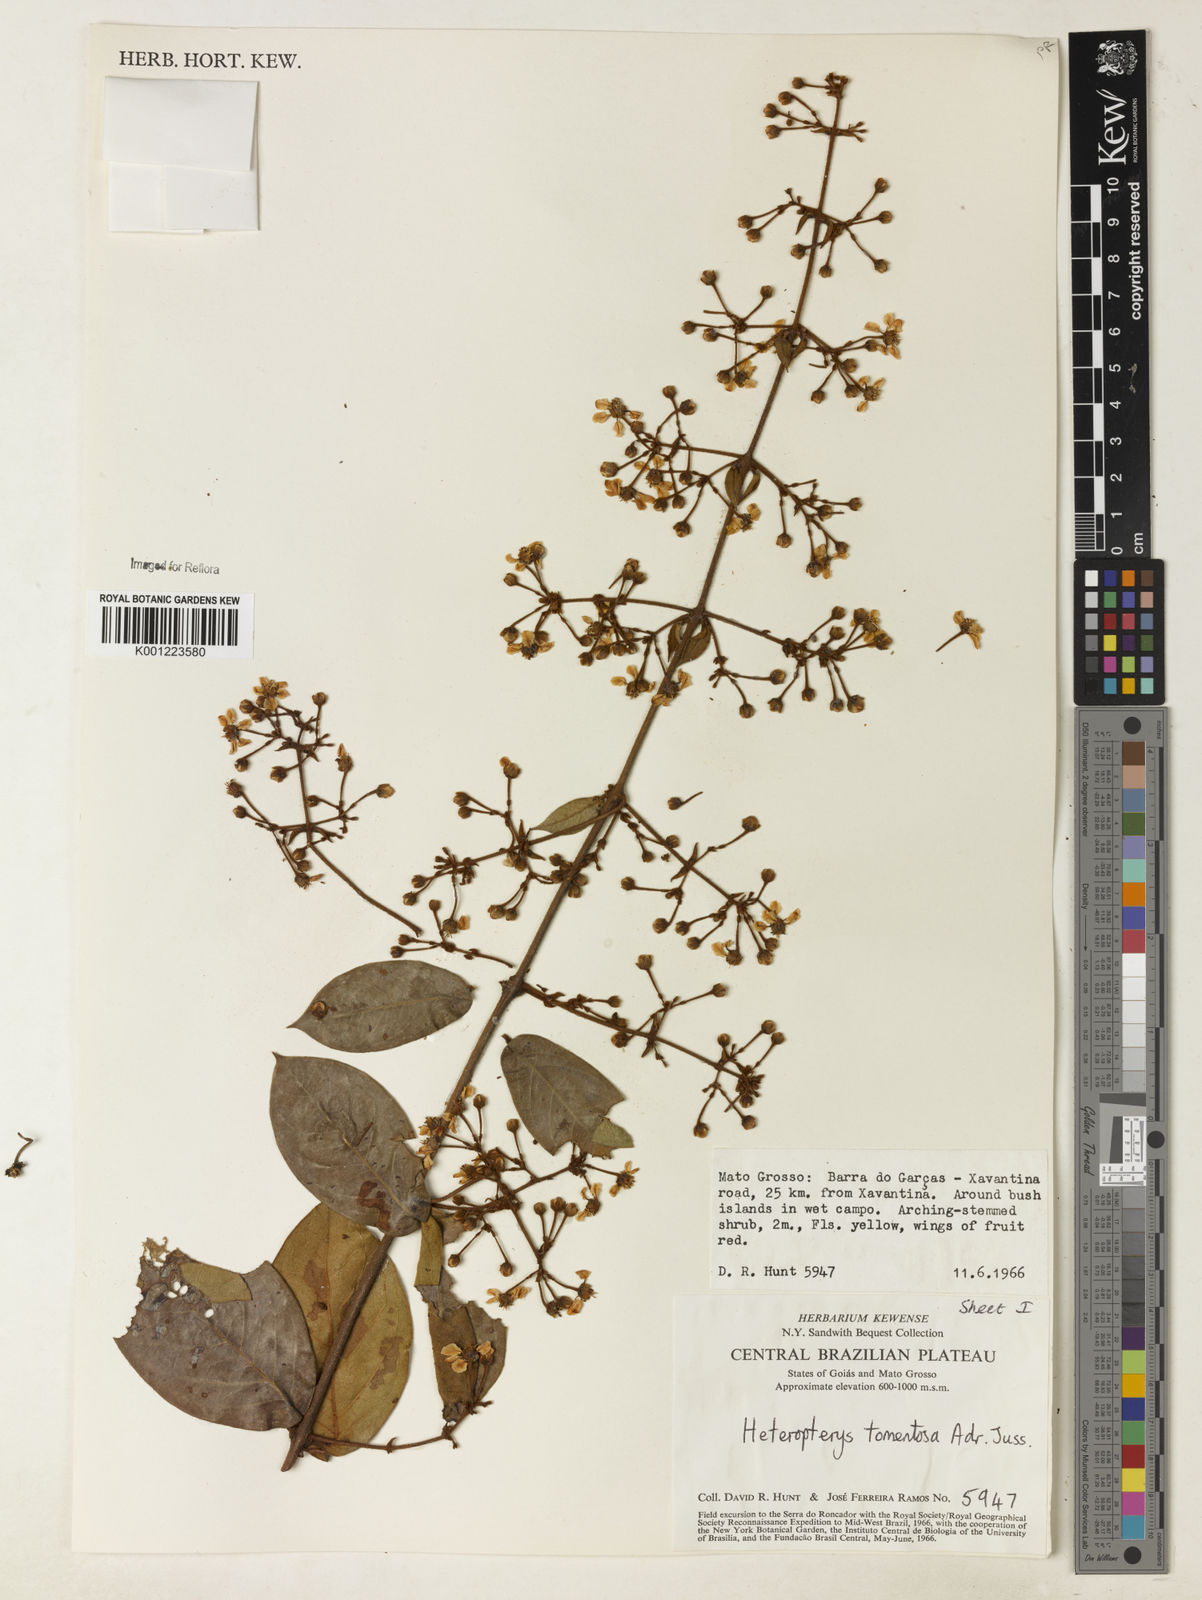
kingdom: Plantae
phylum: Tracheophyta
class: Magnoliopsida
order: Malpighiales
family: Malpighiaceae
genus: Heteropterys
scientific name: Heteropterys tomentosa
